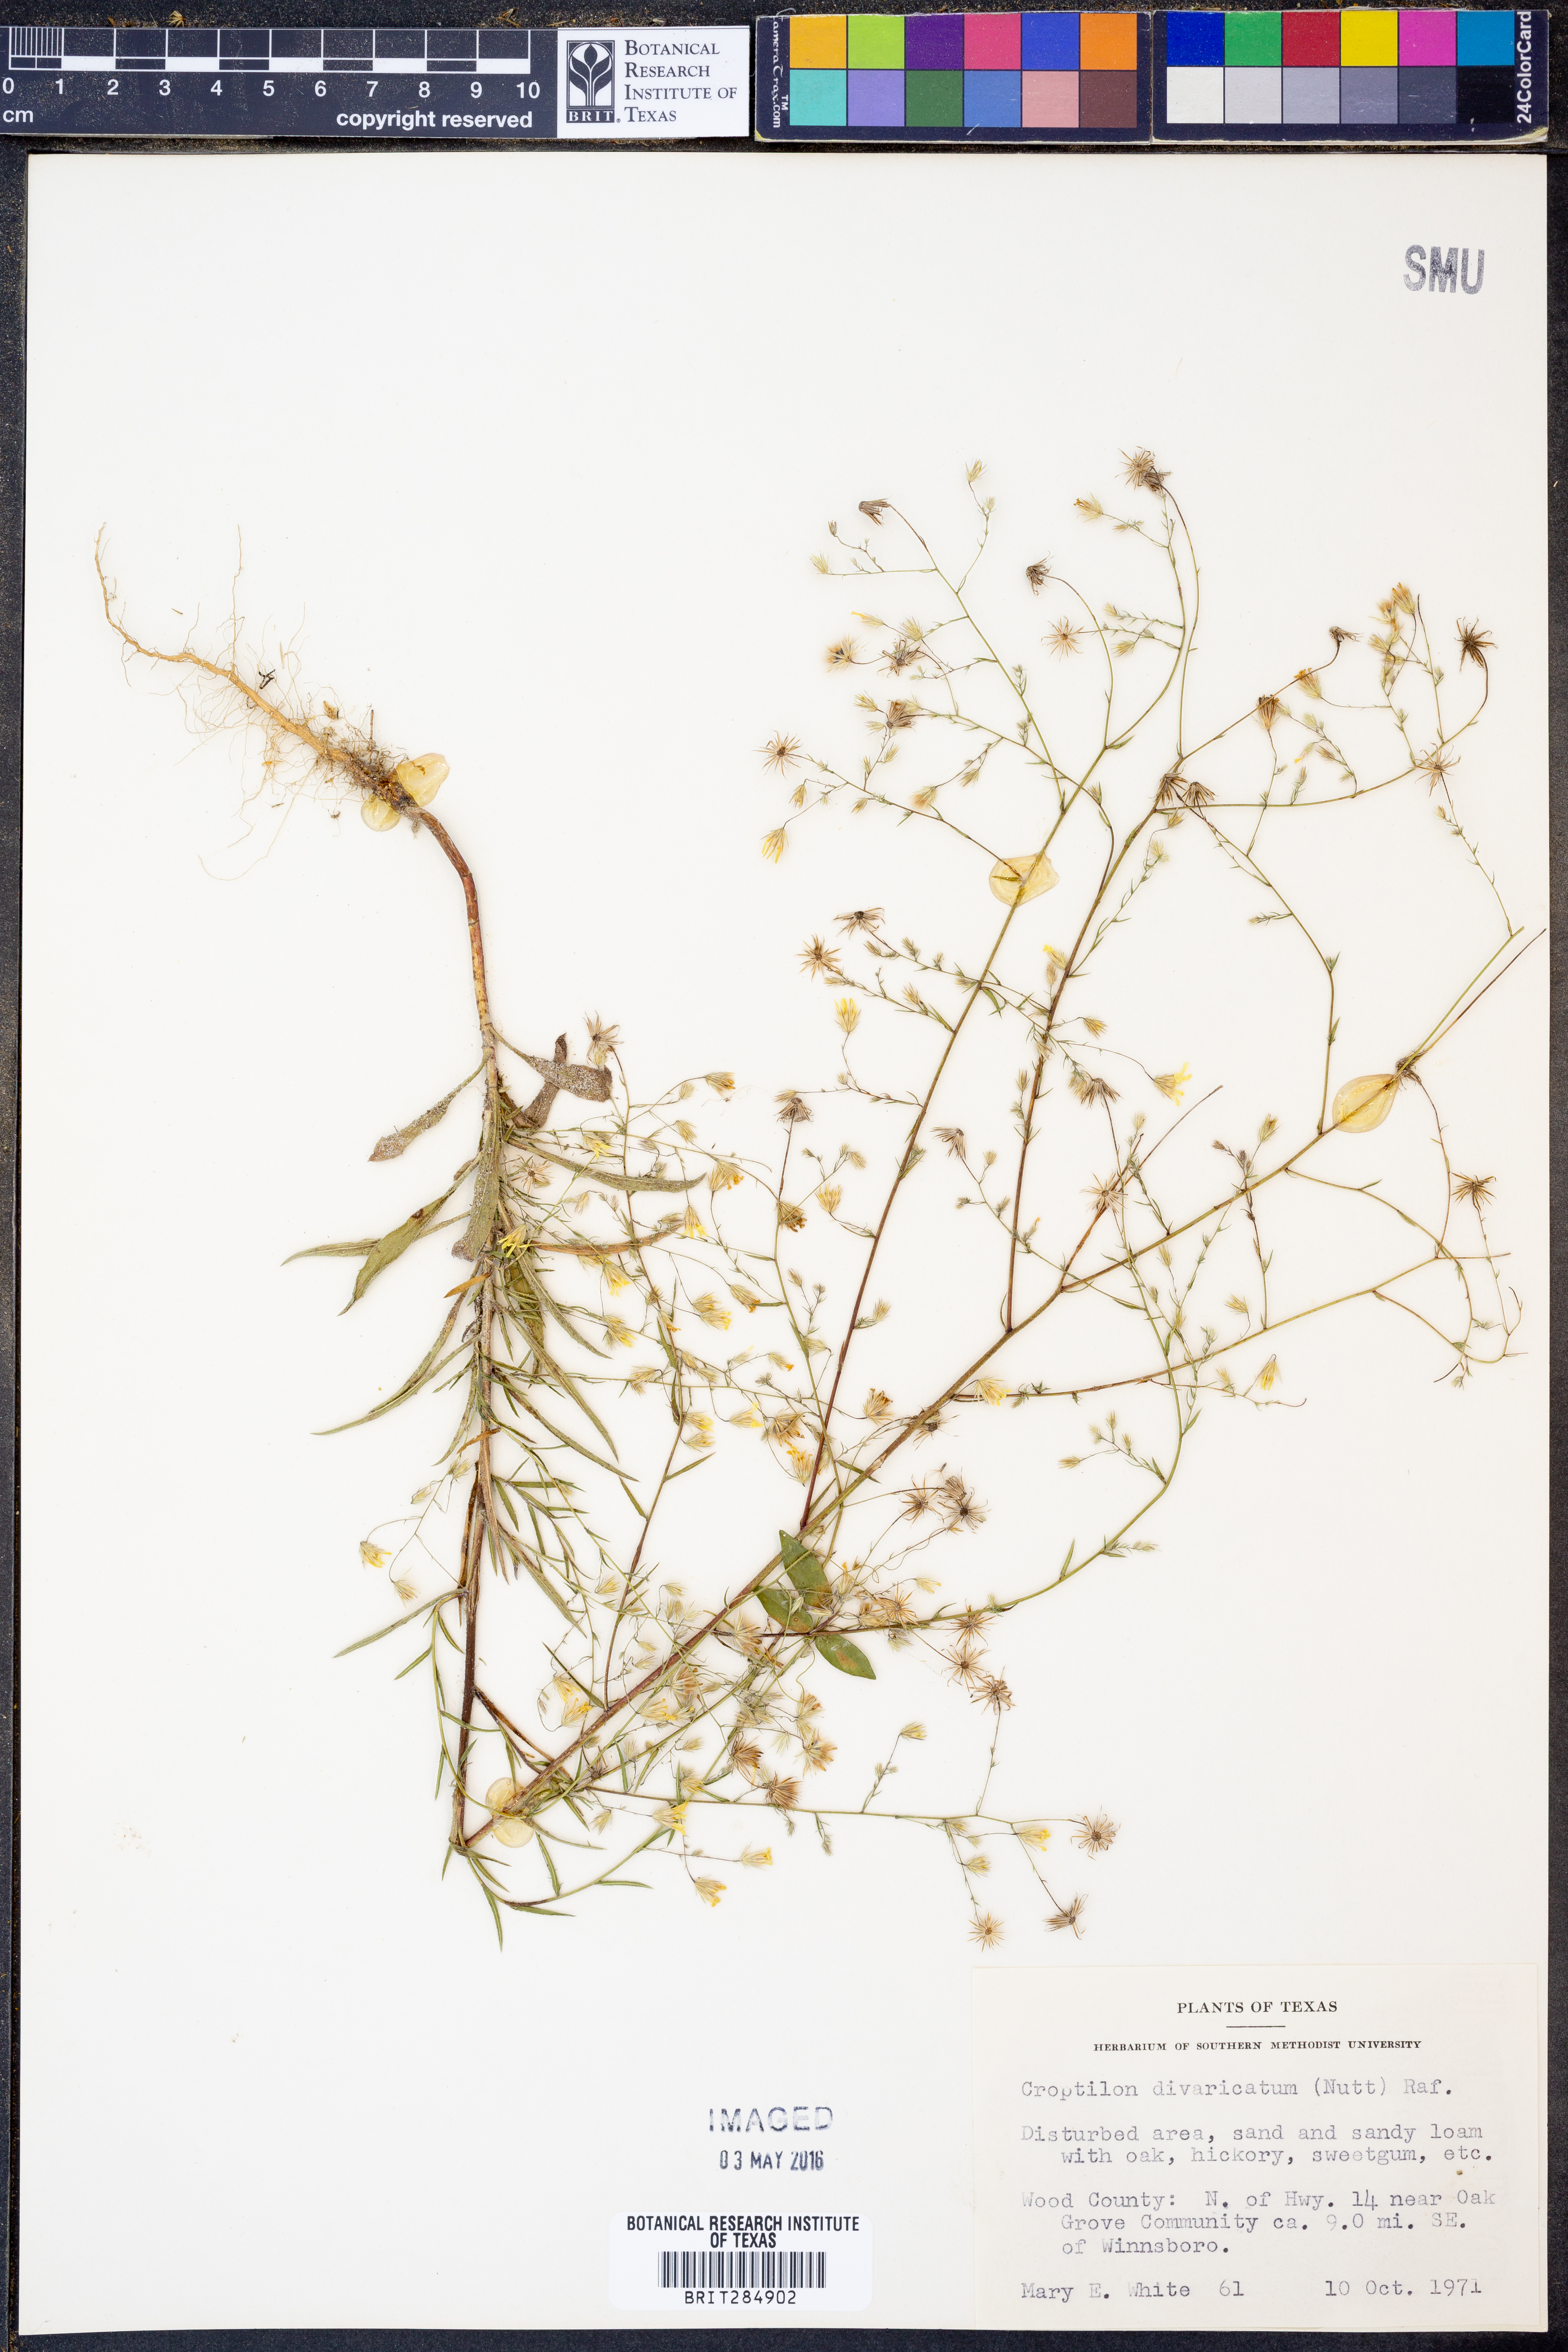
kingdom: Plantae
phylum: Tracheophyta
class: Magnoliopsida
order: Asterales
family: Asteraceae
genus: Croptilon
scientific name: Croptilon divaricatum
